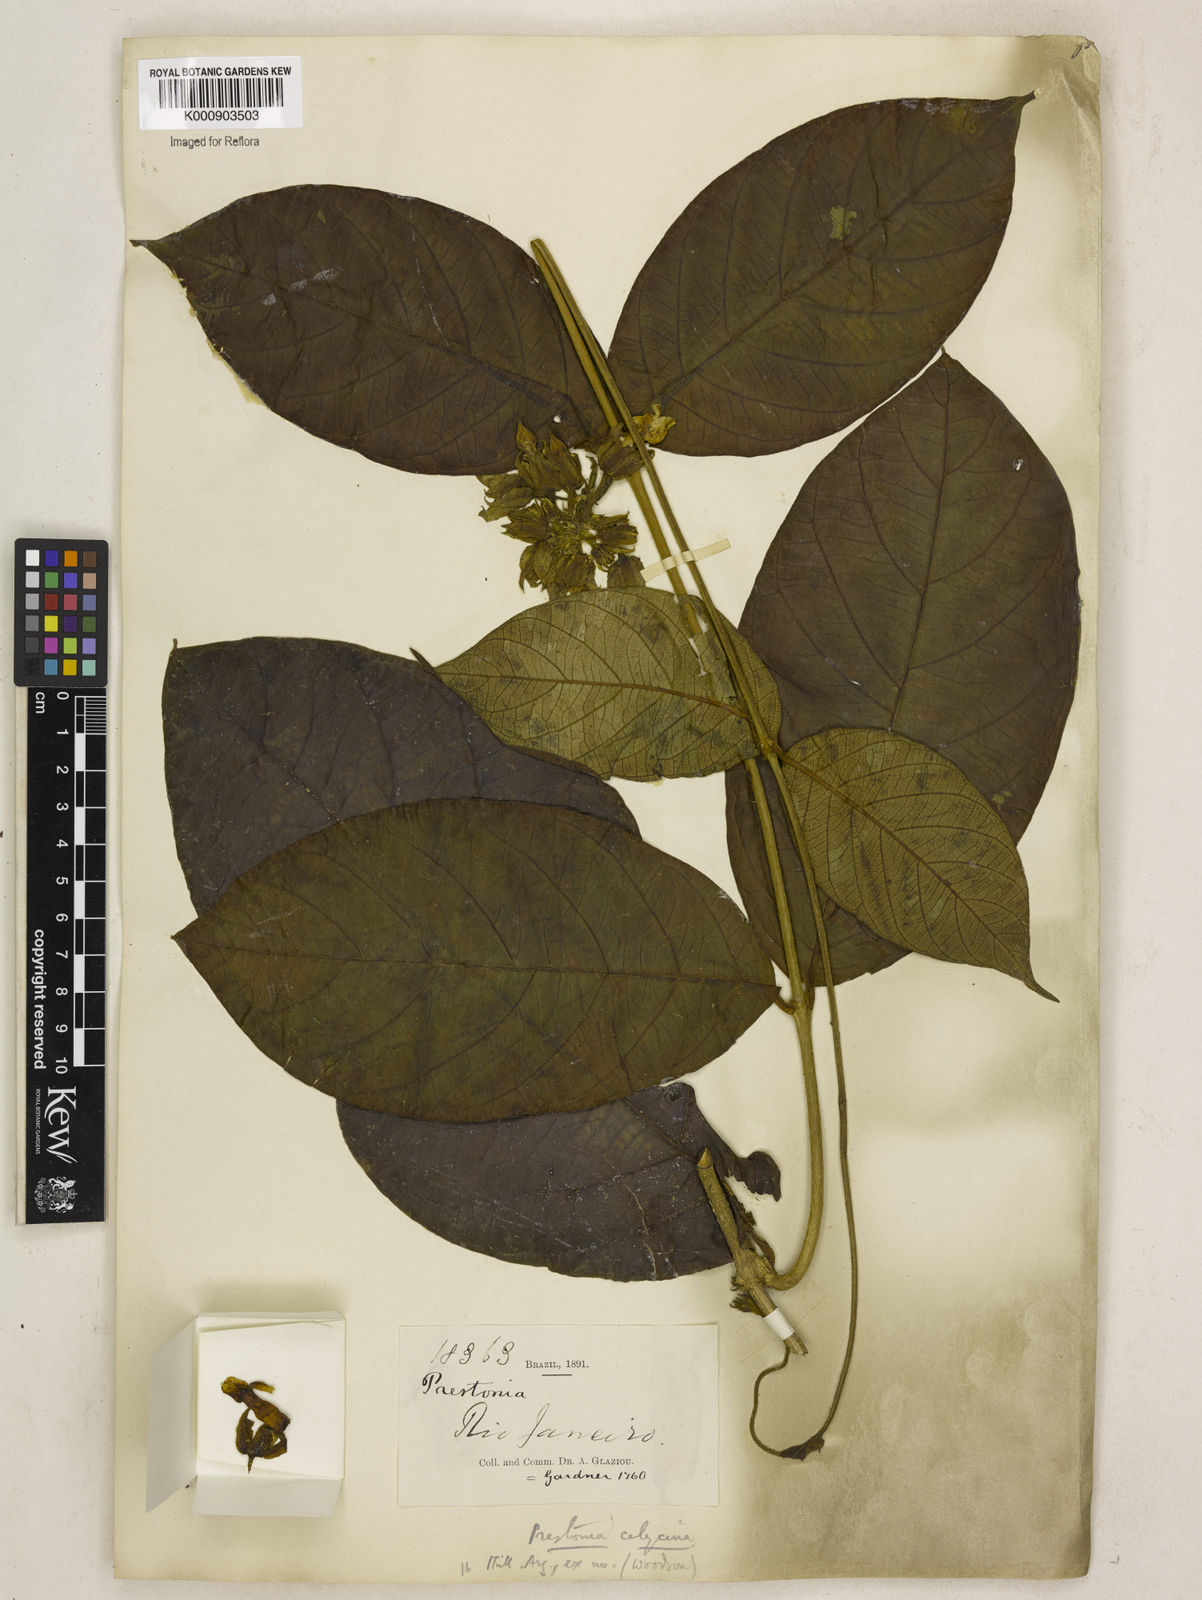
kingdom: Plantae
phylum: Tracheophyta
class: Magnoliopsida
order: Gentianales
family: Apocynaceae
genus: Prestonia
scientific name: Prestonia
